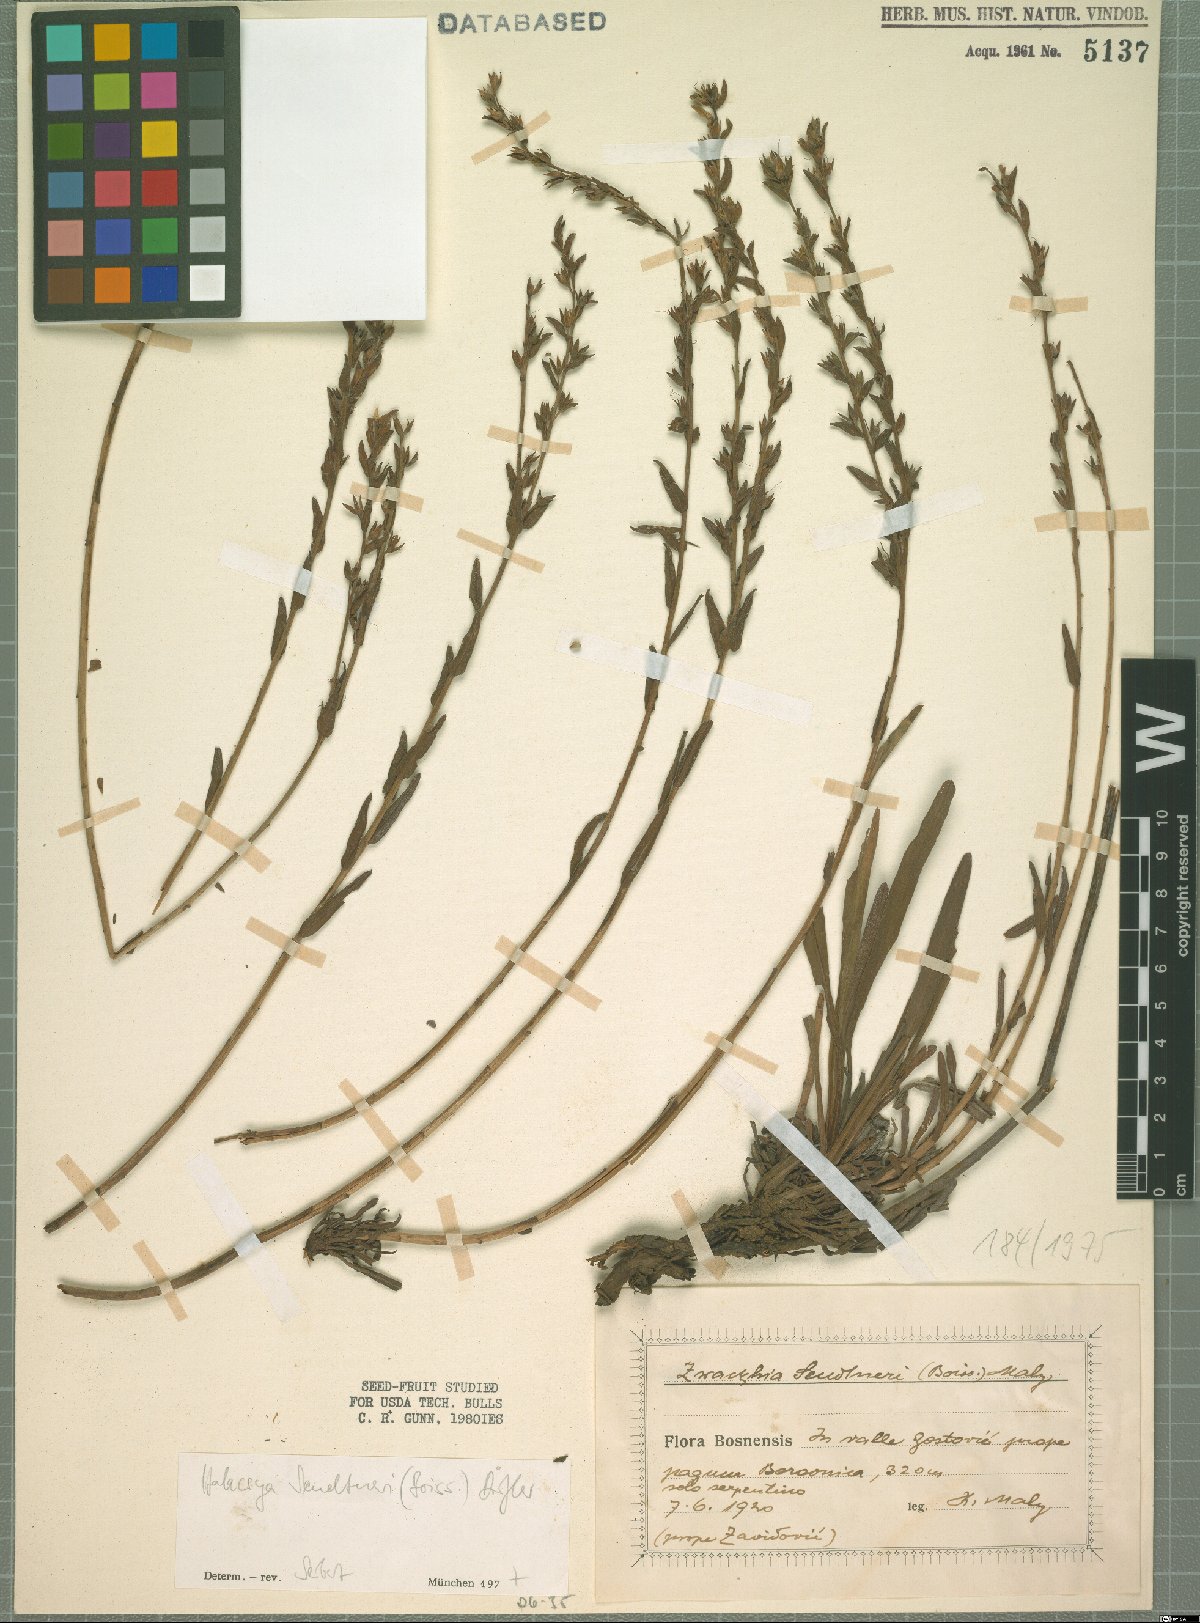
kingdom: Plantae
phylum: Tracheophyta
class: Magnoliopsida
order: Boraginales
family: Boraginaceae
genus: Halacsya
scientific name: Halacsya sendtneri
